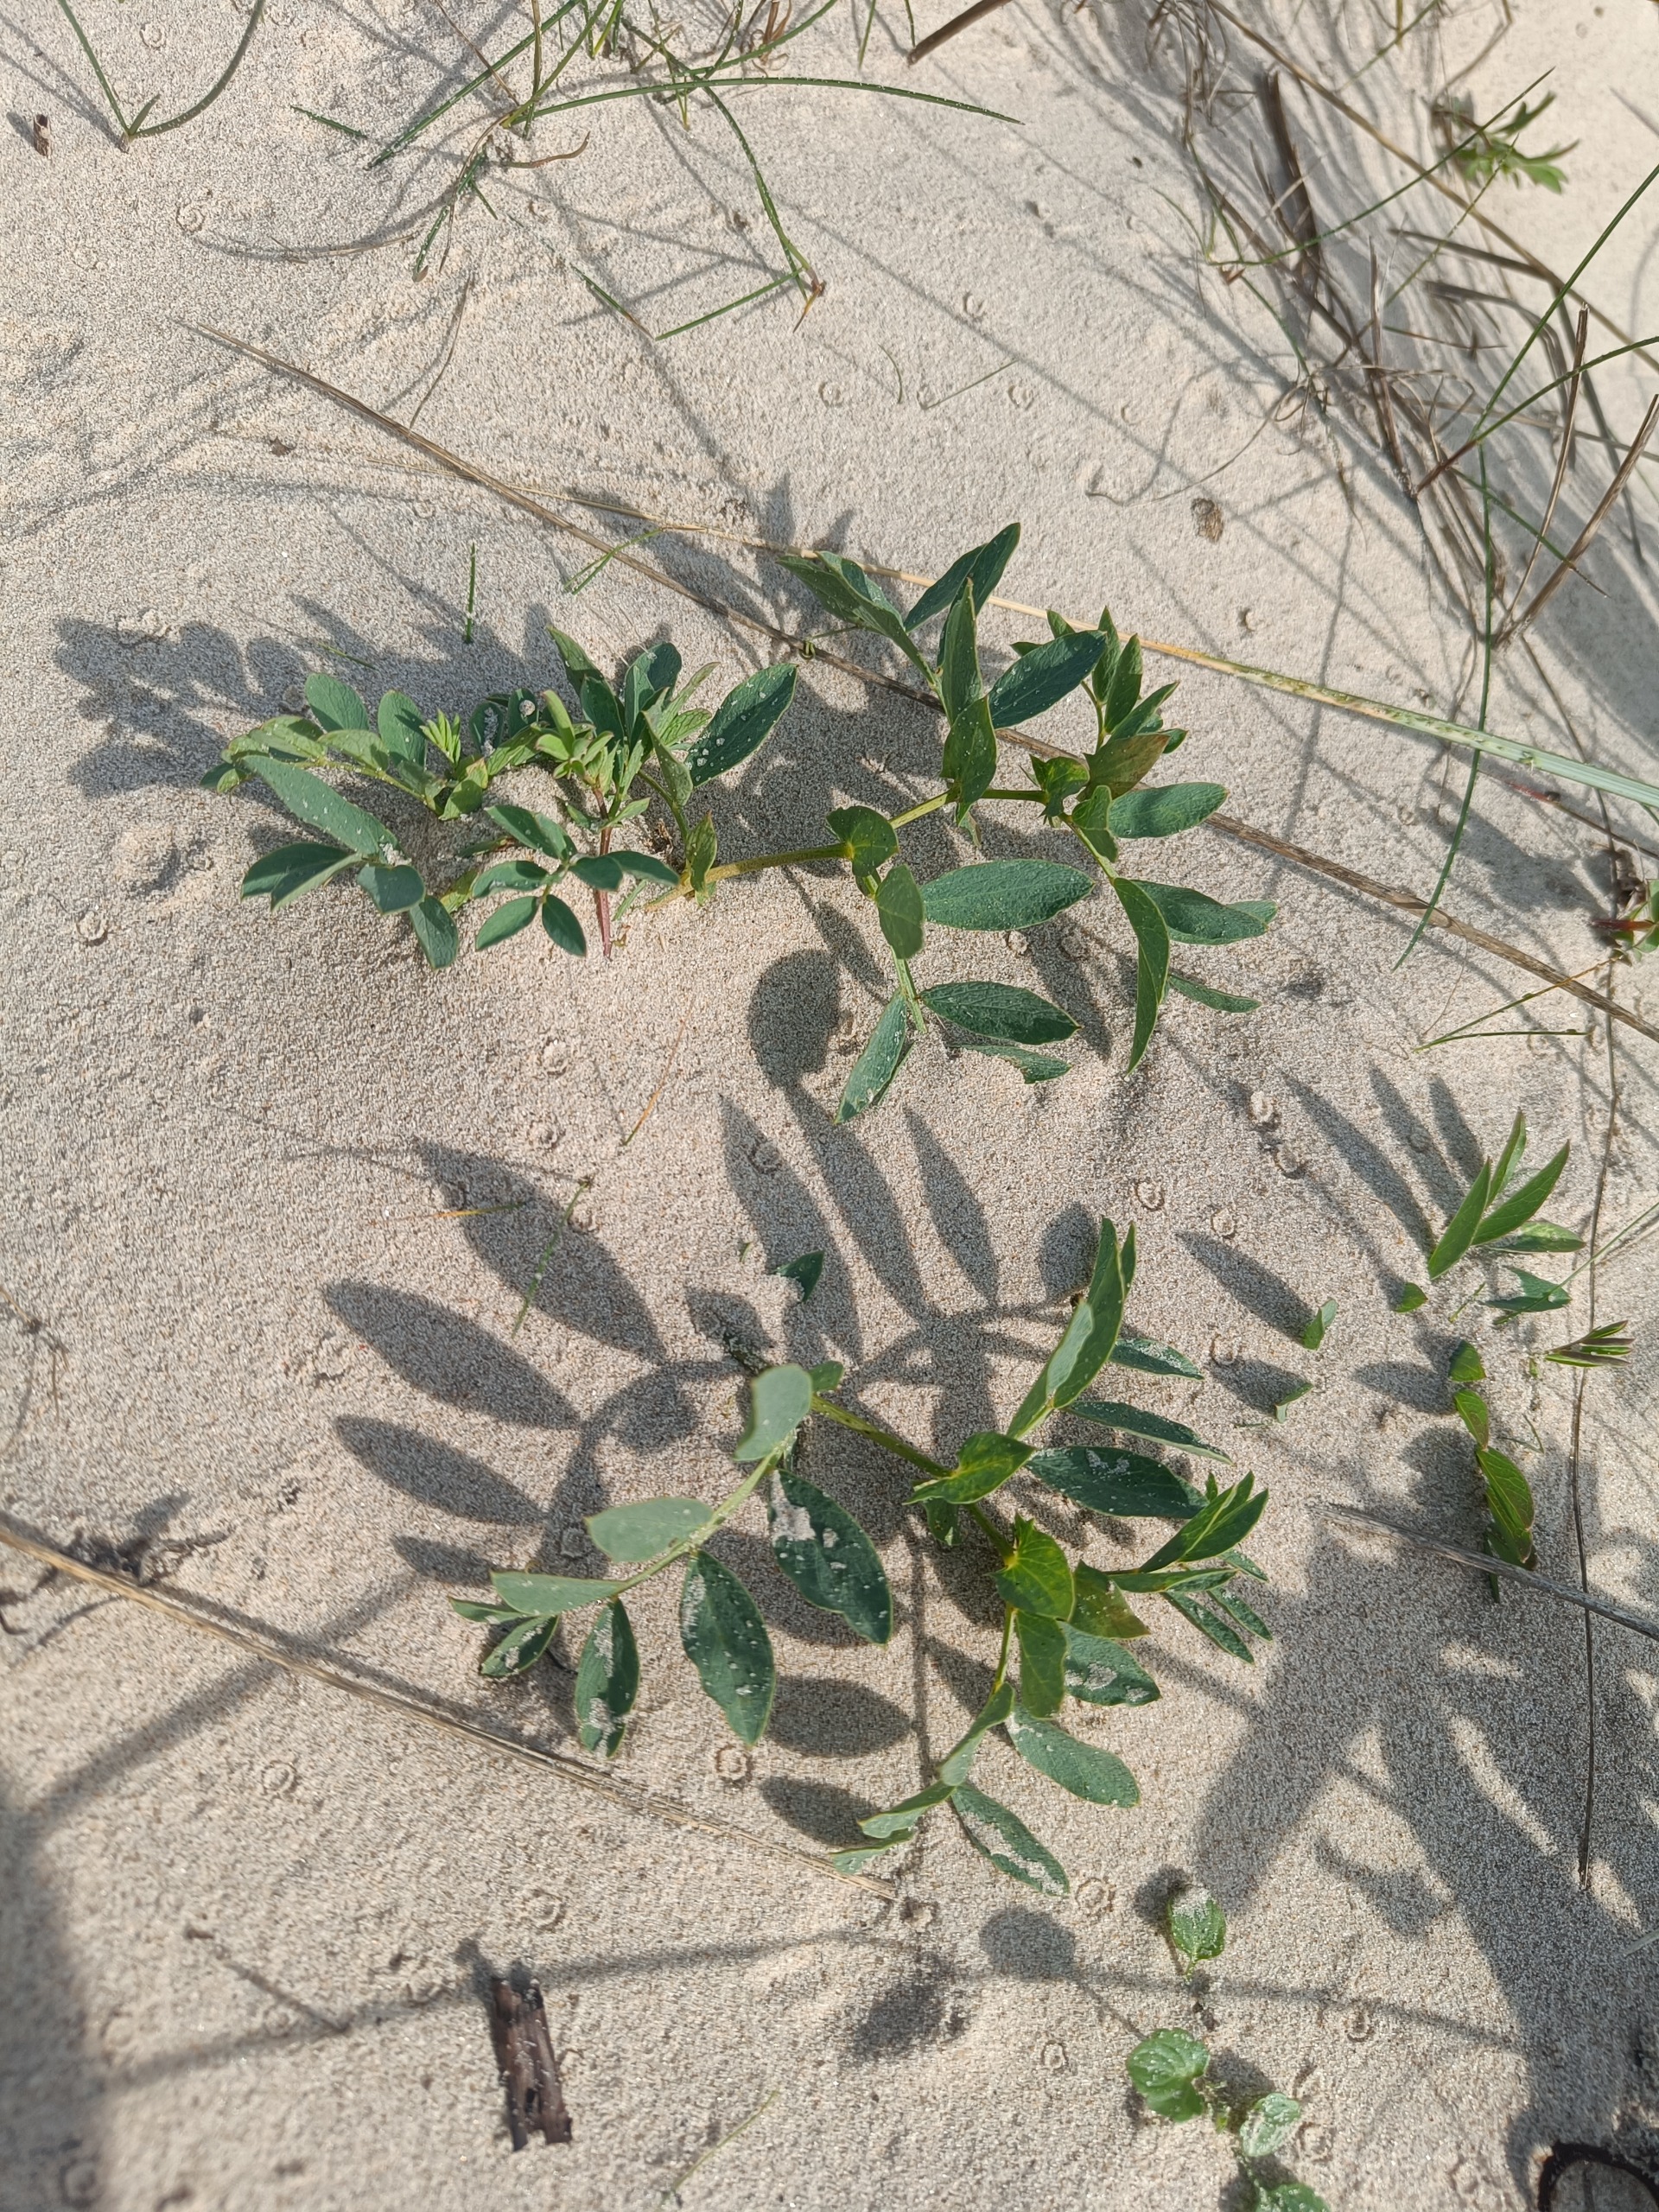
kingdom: Plantae
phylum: Tracheophyta
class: Magnoliopsida
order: Fabales
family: Fabaceae
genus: Lathyrus
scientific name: Lathyrus japonicus
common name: Strand-fladbælg
